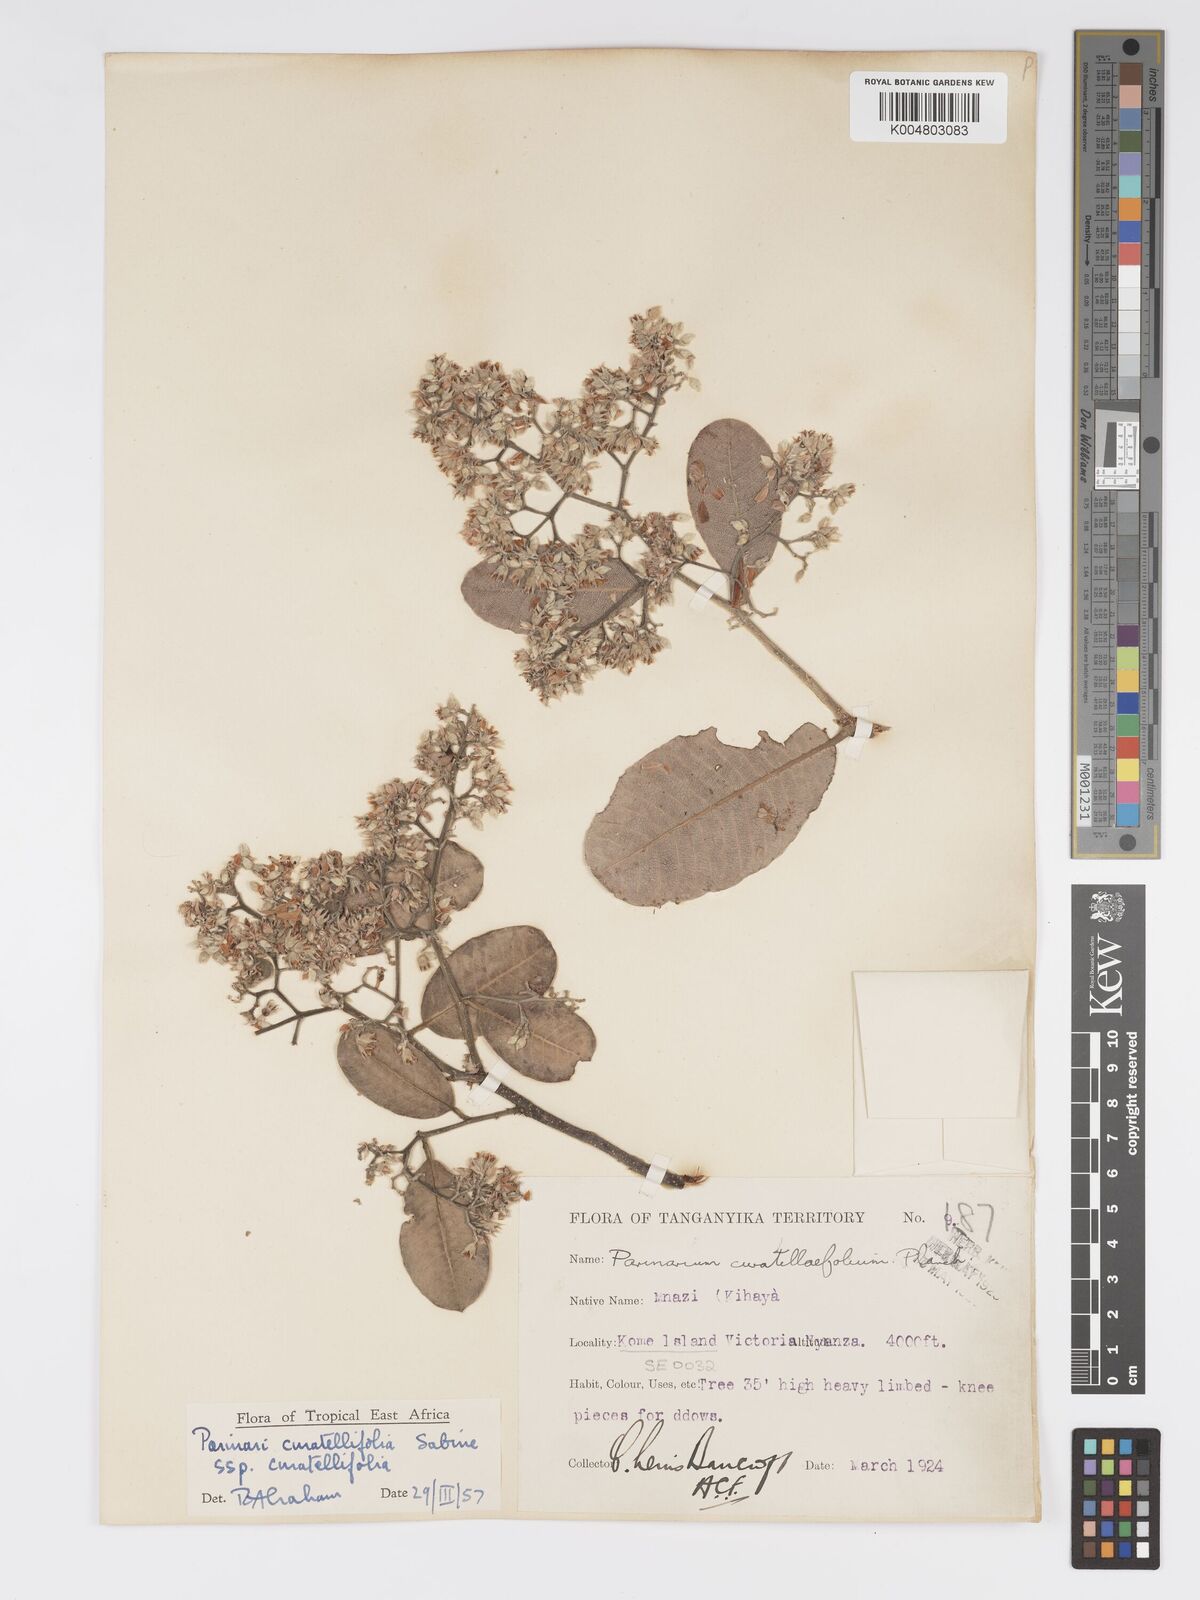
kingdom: Plantae
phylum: Tracheophyta
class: Magnoliopsida
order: Malpighiales
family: Chrysobalanaceae
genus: Parinari
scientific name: Parinari curatellifolia
